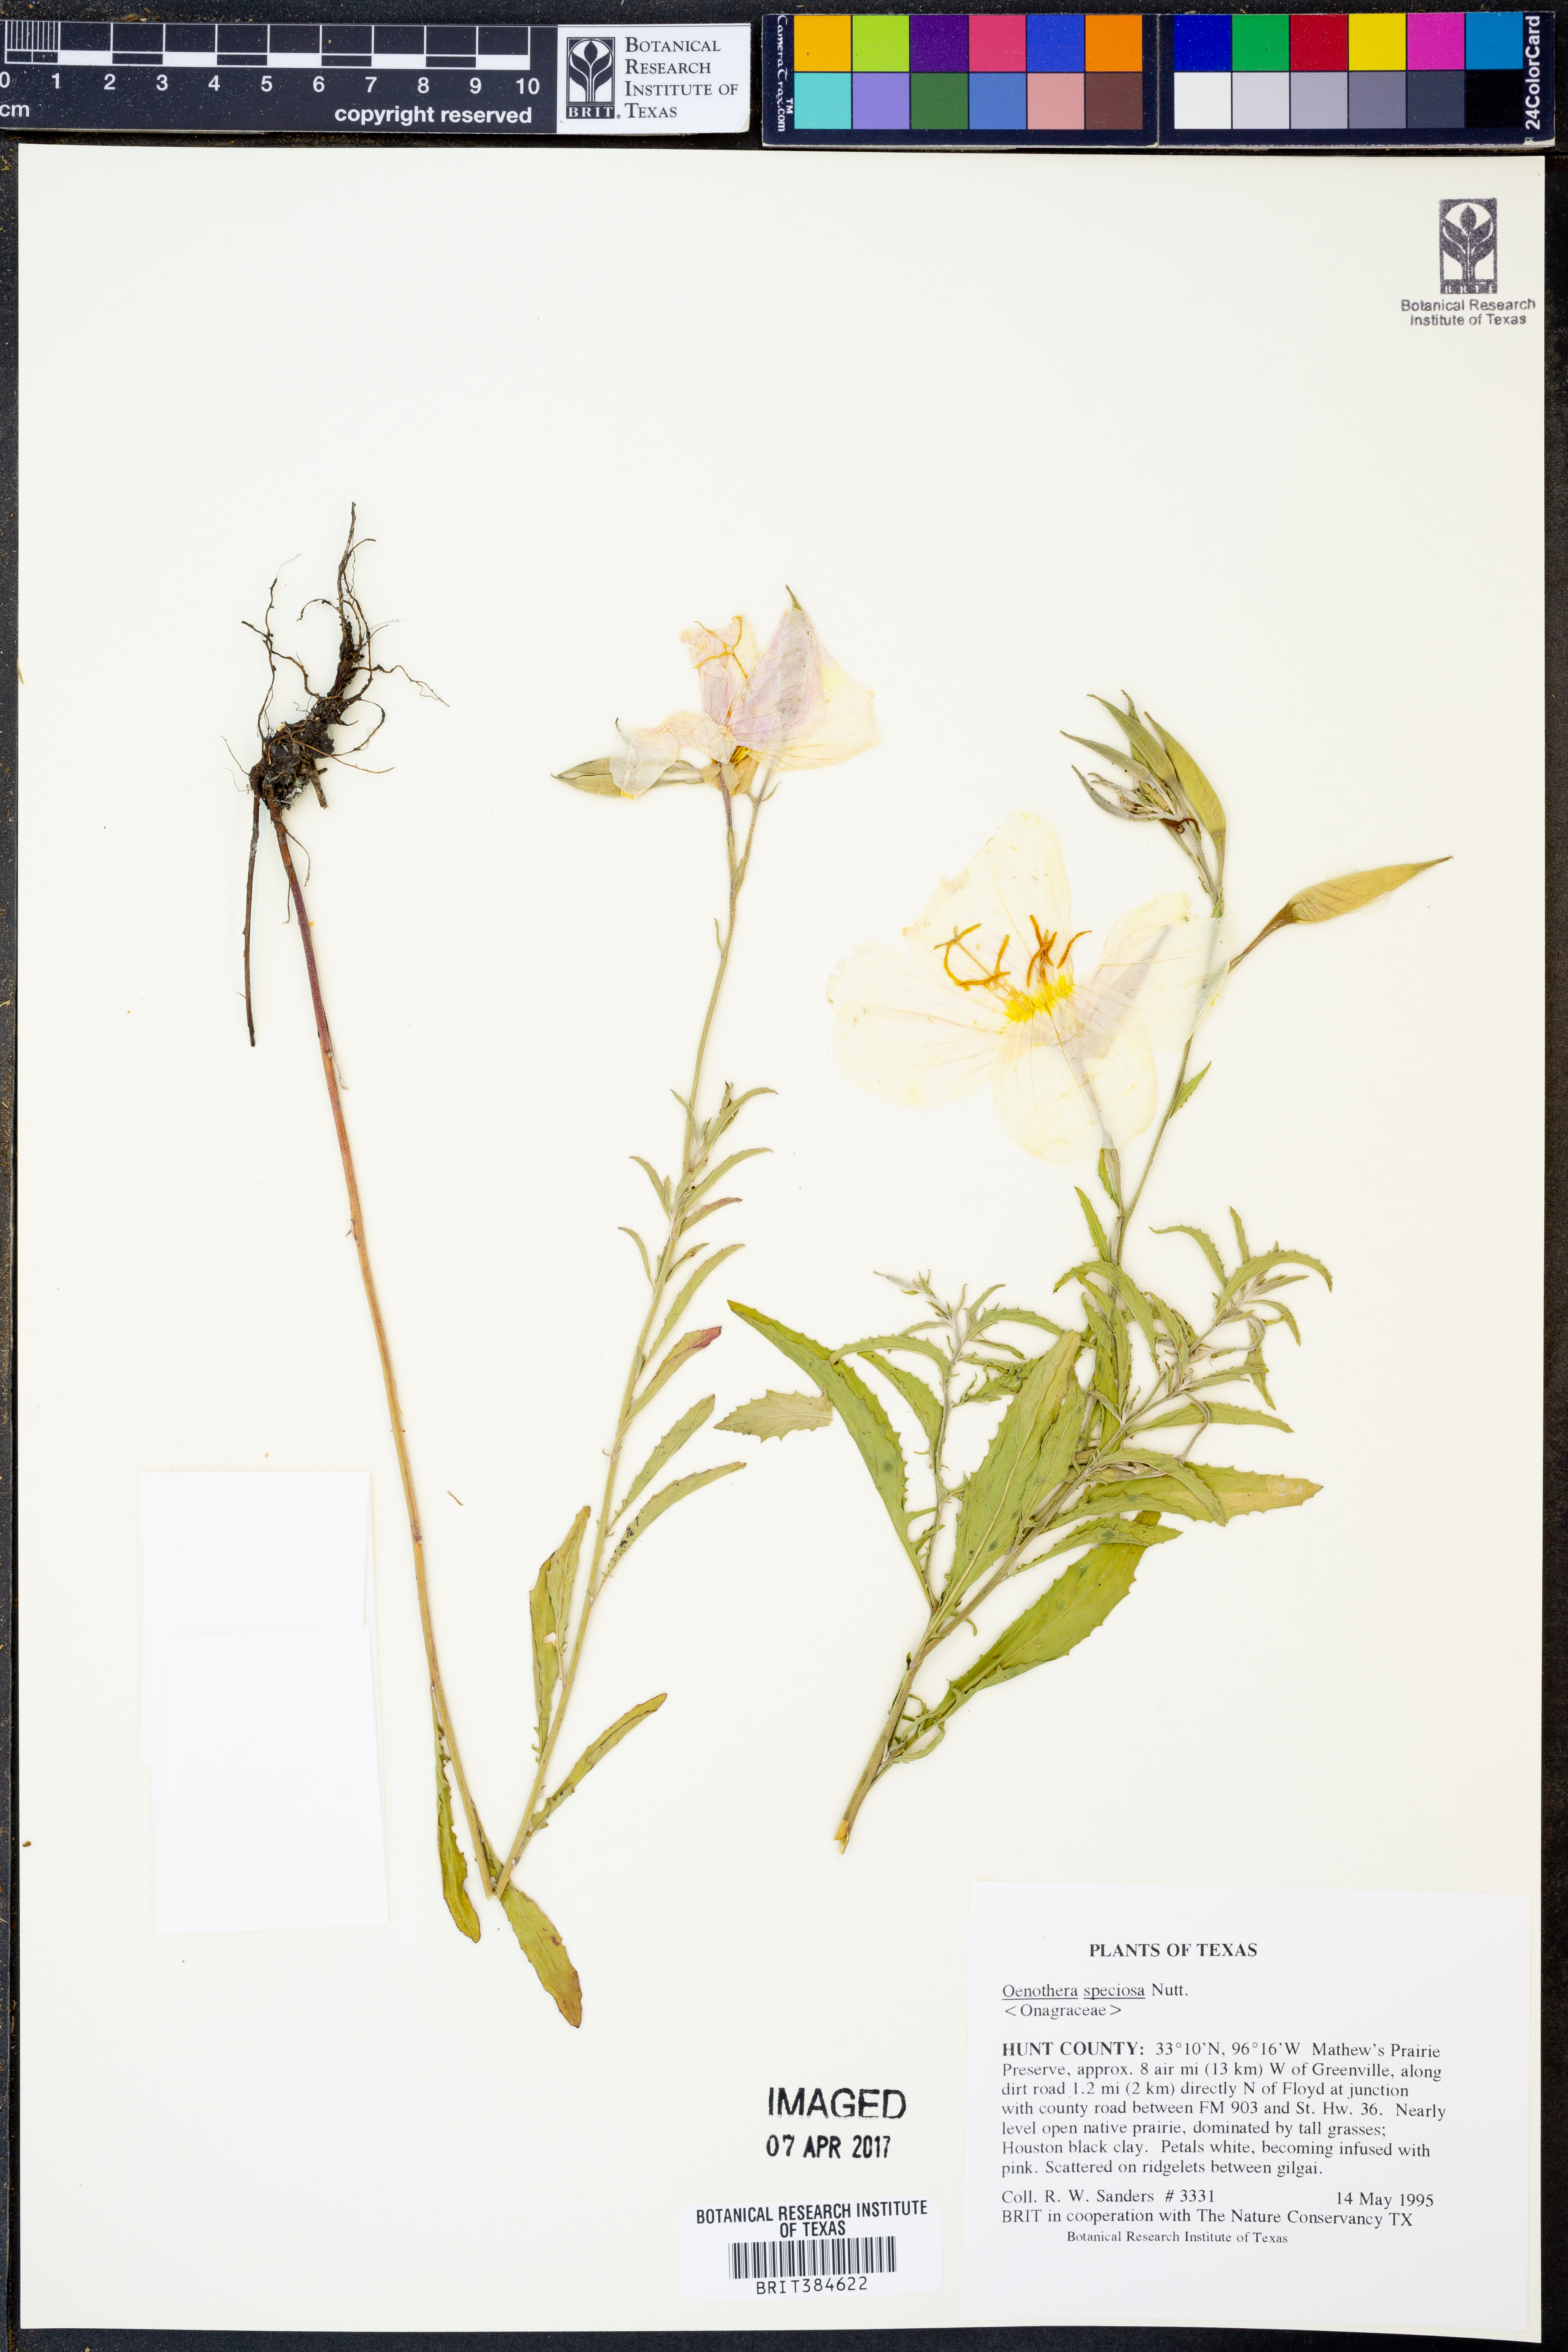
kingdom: Plantae
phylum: Tracheophyta
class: Magnoliopsida
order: Myrtales
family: Onagraceae
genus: Oenothera
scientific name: Oenothera speciosa
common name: White evening-primrose
